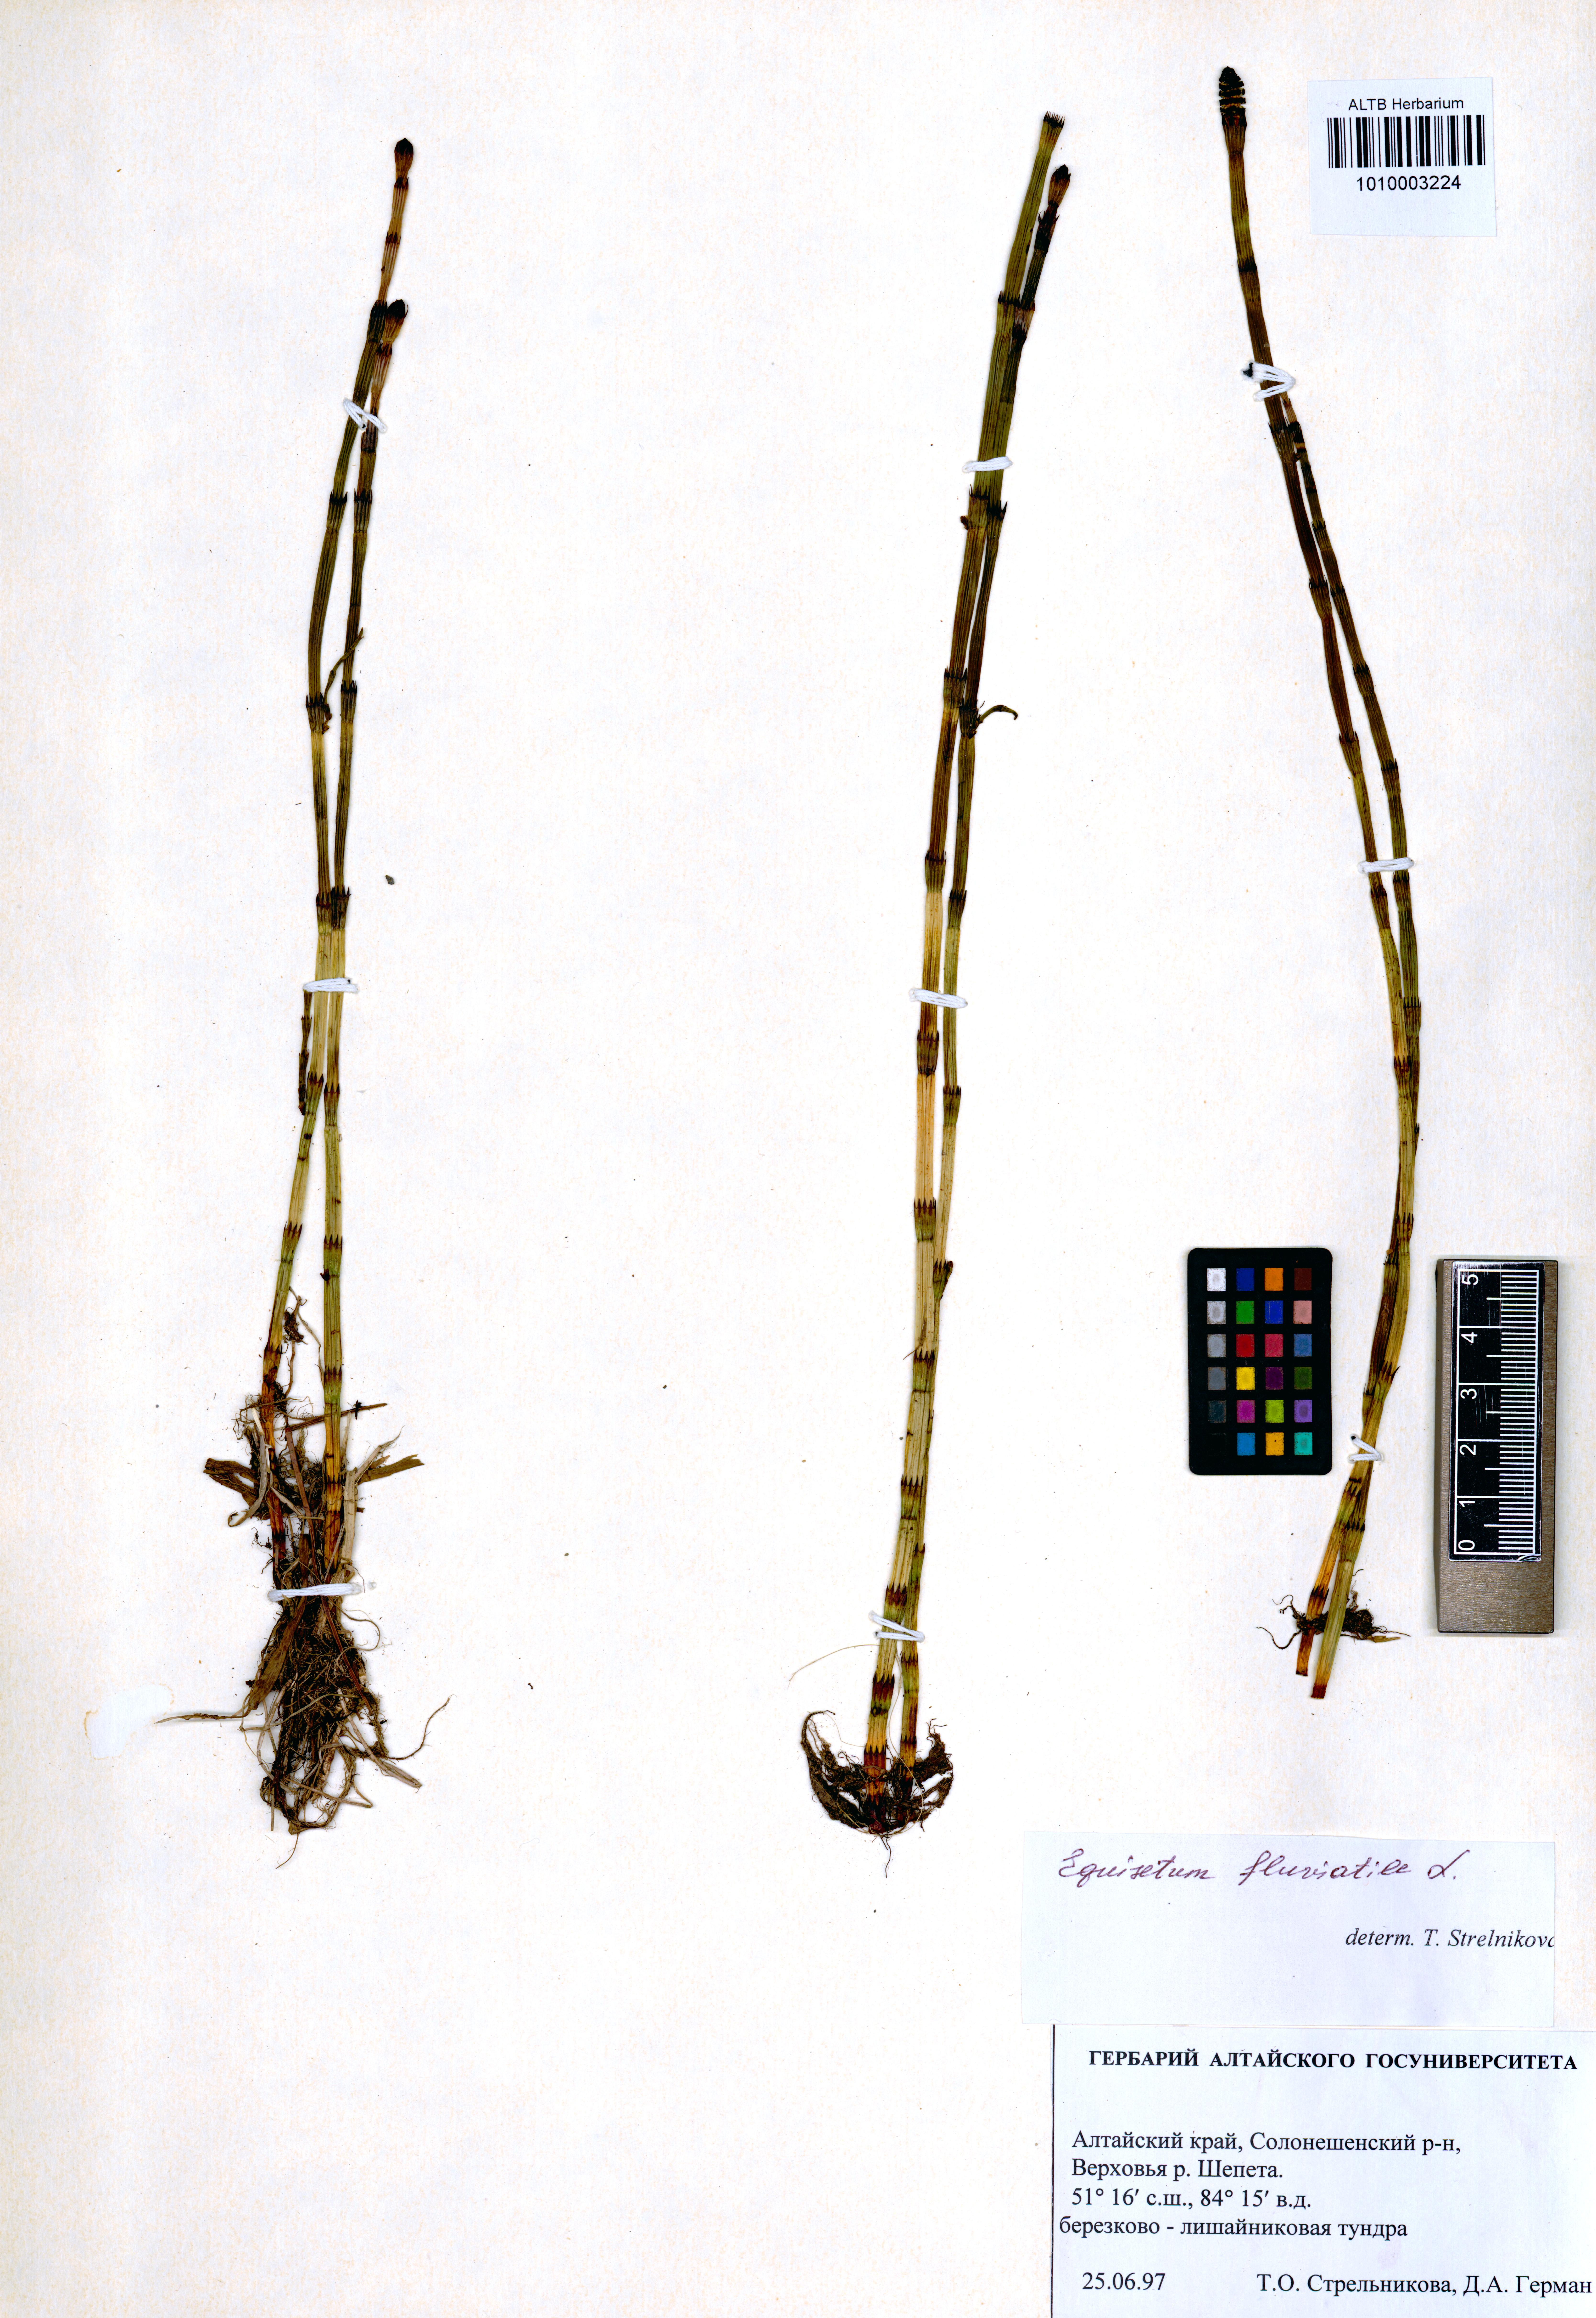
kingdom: Plantae
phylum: Tracheophyta
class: Polypodiopsida
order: Equisetales
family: Equisetaceae
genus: Equisetum
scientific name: Equisetum fluviatile
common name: Water horsetail
